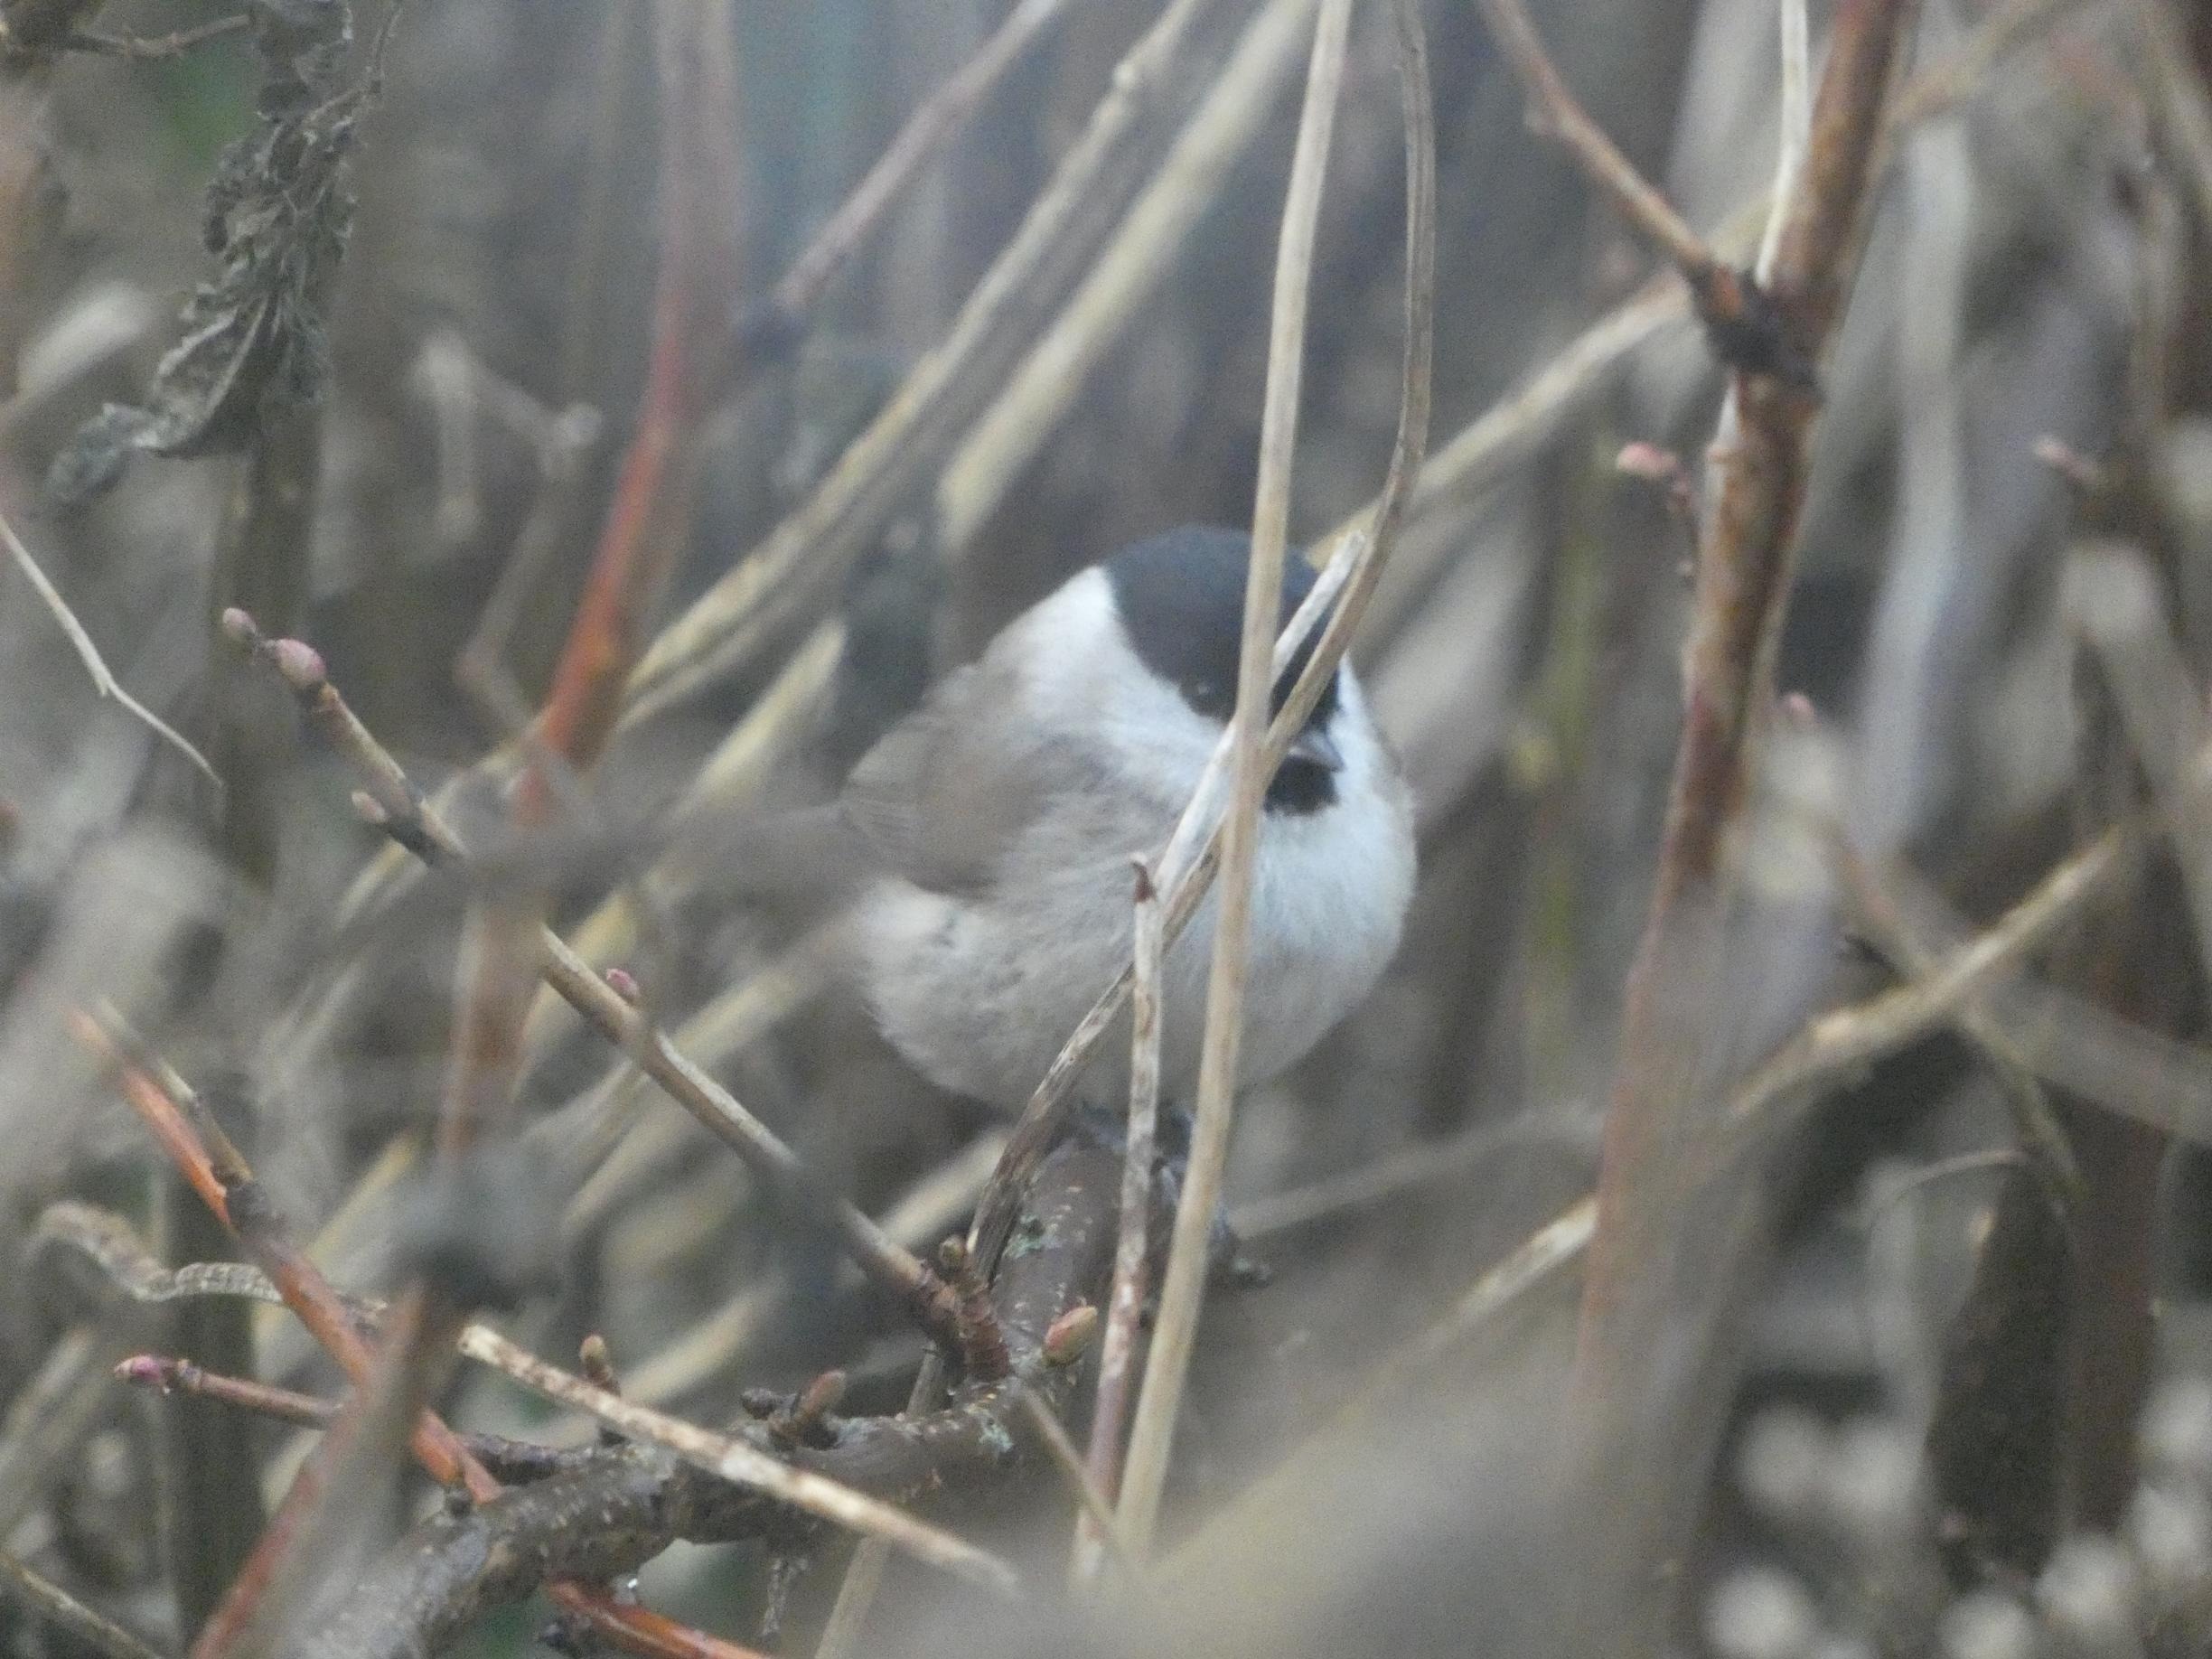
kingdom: Animalia
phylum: Chordata
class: Aves
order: Passeriformes
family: Paridae
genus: Poecile
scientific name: Poecile palustris
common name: Sumpmejse
